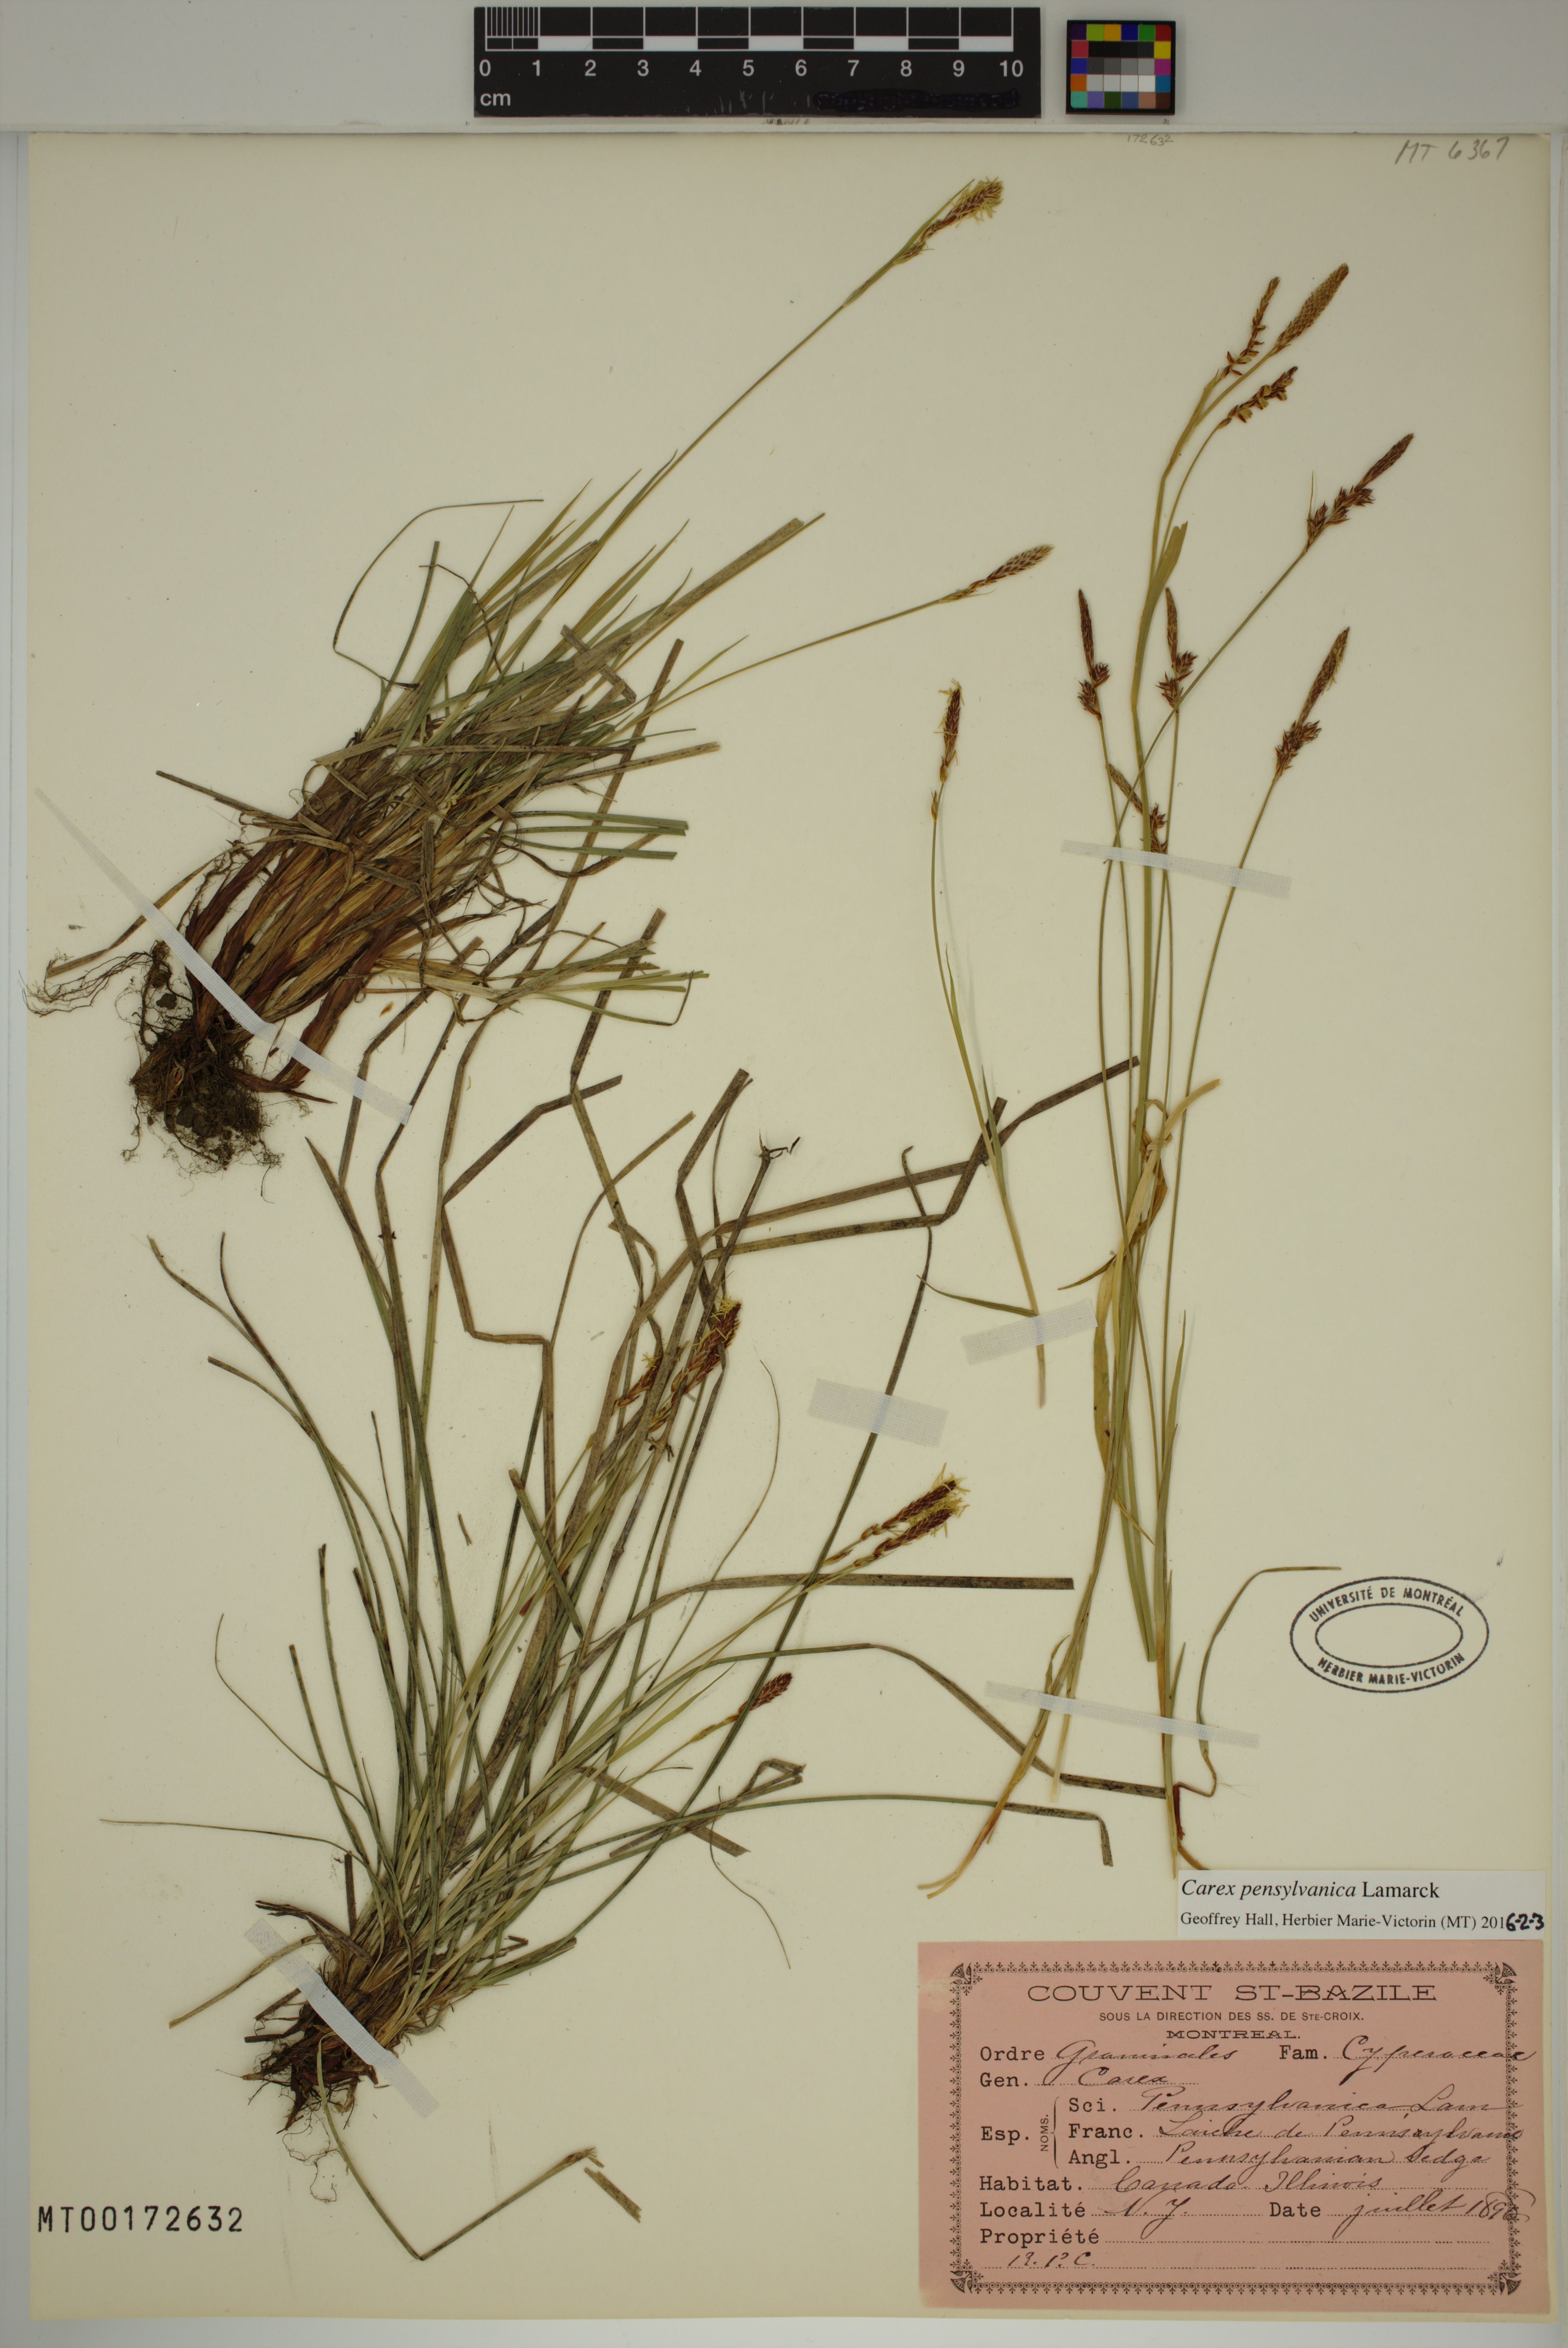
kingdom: Plantae
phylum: Tracheophyta
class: Liliopsida
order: Poales
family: Cyperaceae
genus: Carex
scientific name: Carex pensylvanica
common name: Common oak sedge
